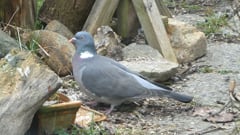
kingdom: Animalia
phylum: Chordata
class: Aves
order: Columbiformes
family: Columbidae
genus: Columba
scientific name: Columba palumbus
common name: Common wood pigeon
